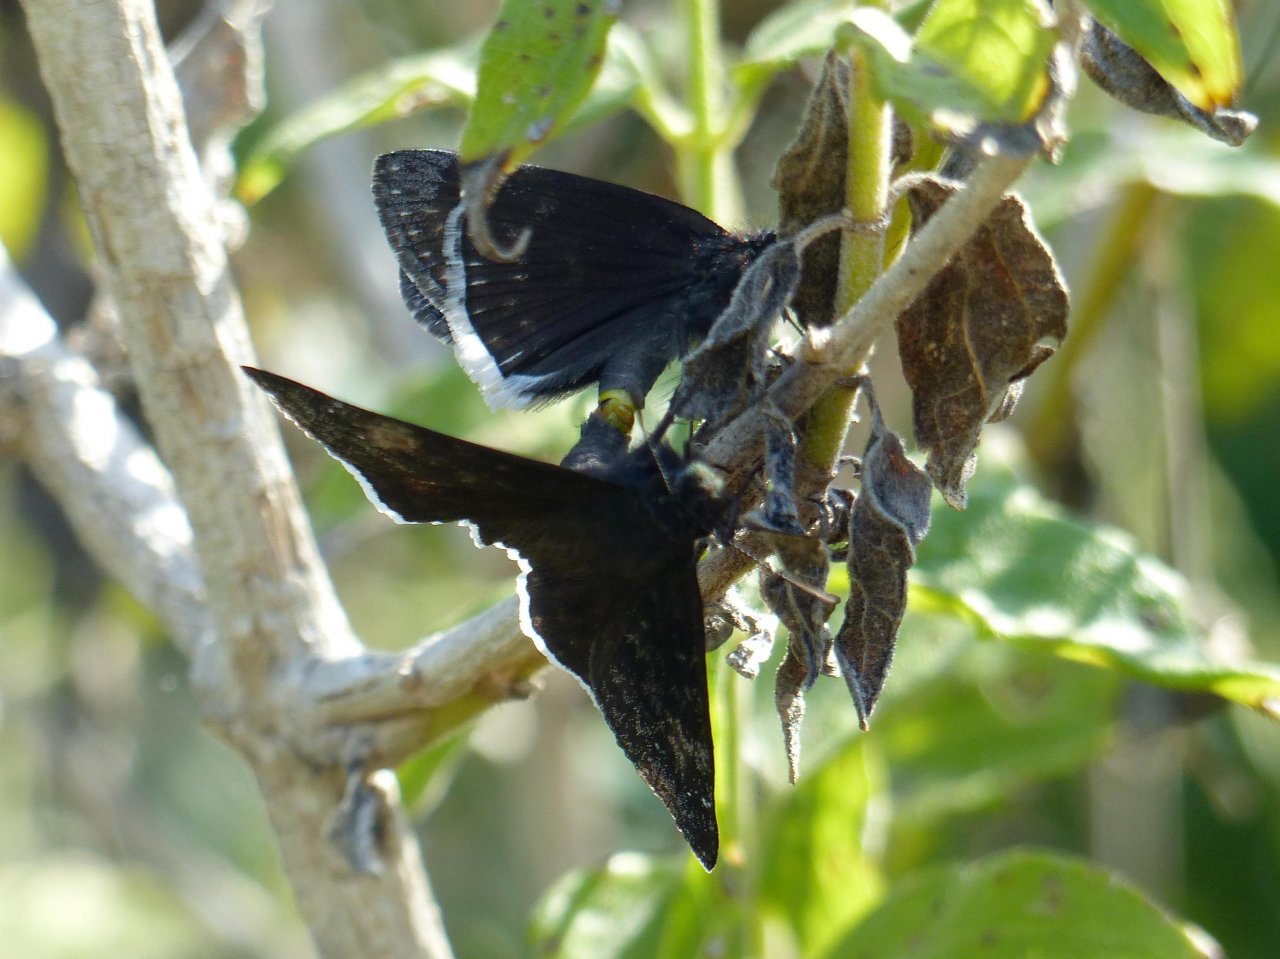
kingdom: Animalia
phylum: Arthropoda
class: Insecta
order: Lepidoptera
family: Hesperiidae
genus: Erynnis
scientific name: Erynnis funeralis
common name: Funereal Duskywing
